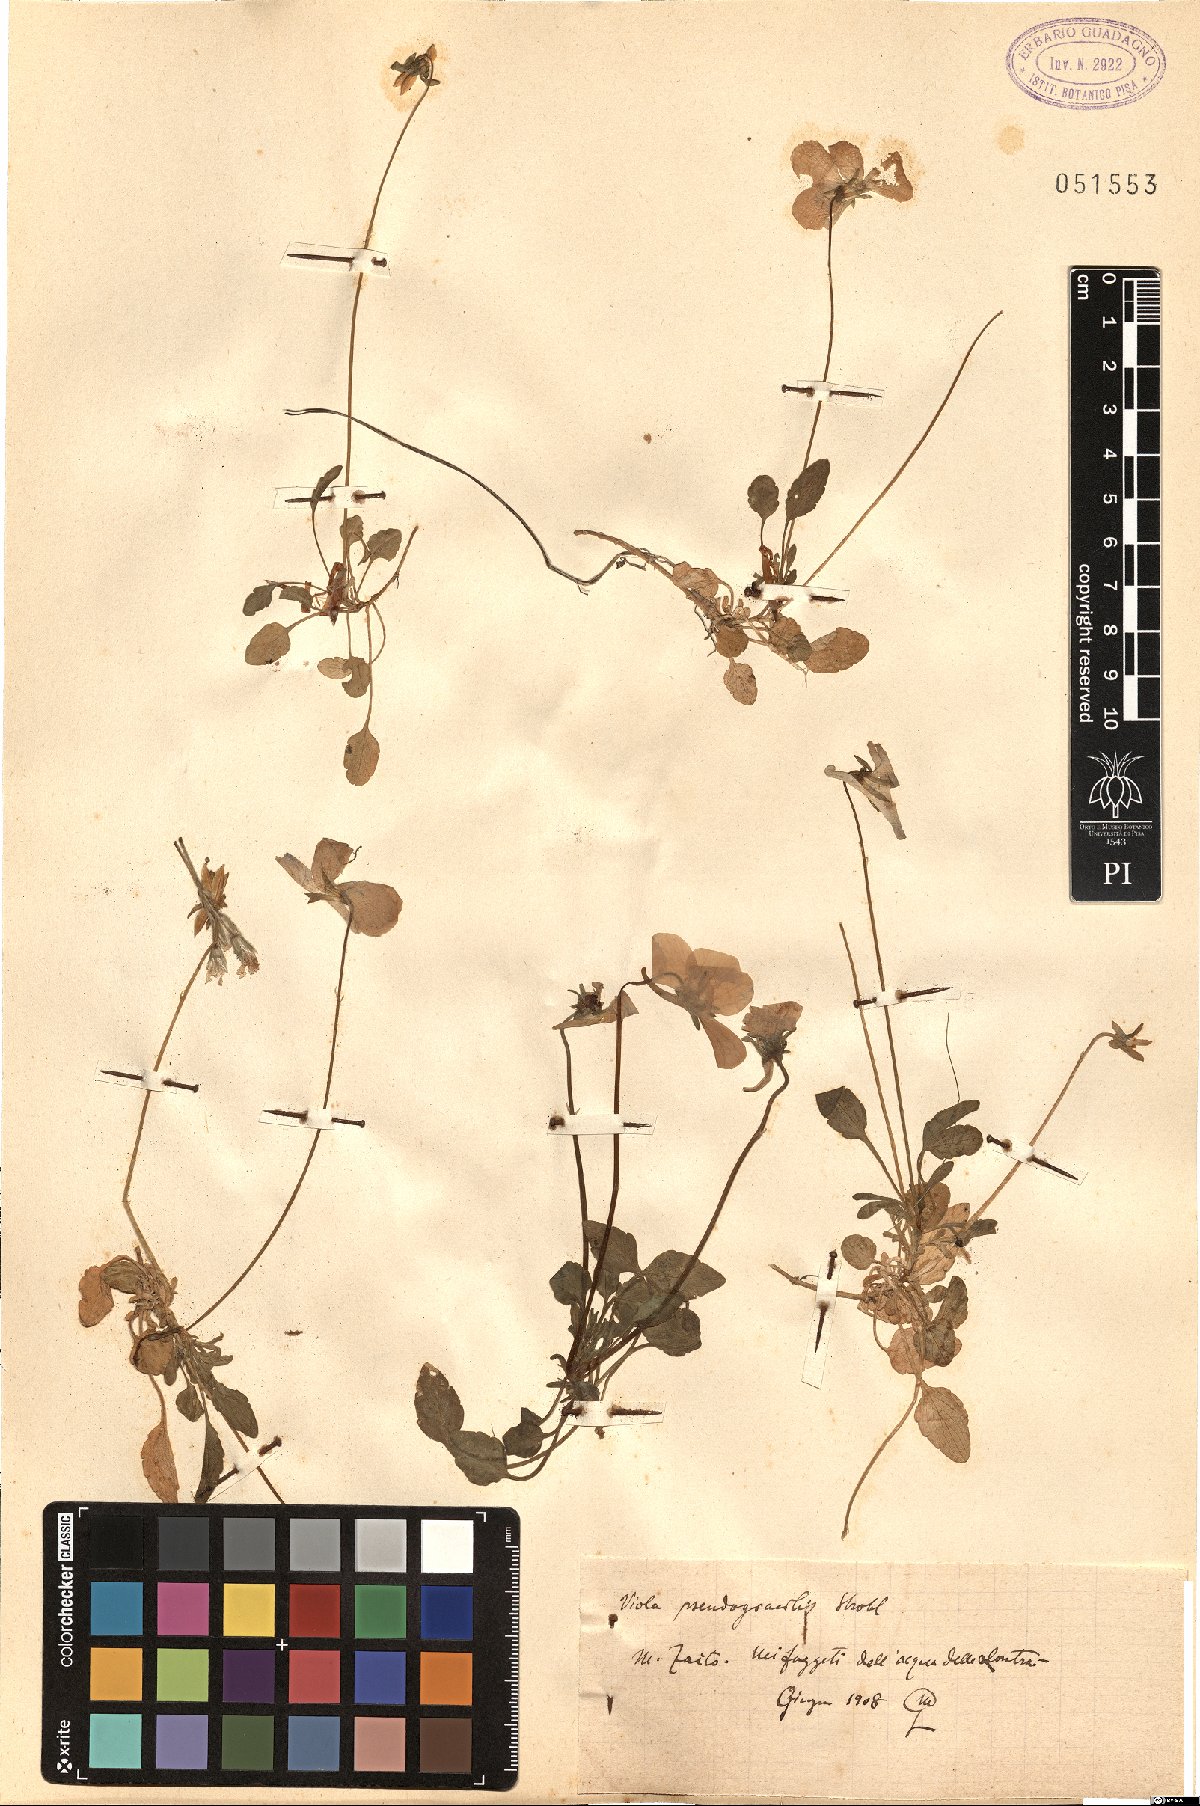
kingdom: Plantae
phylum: Tracheophyta
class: Magnoliopsida
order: Malpighiales
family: Violaceae
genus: Viola
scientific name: Viola pseudogracilis
